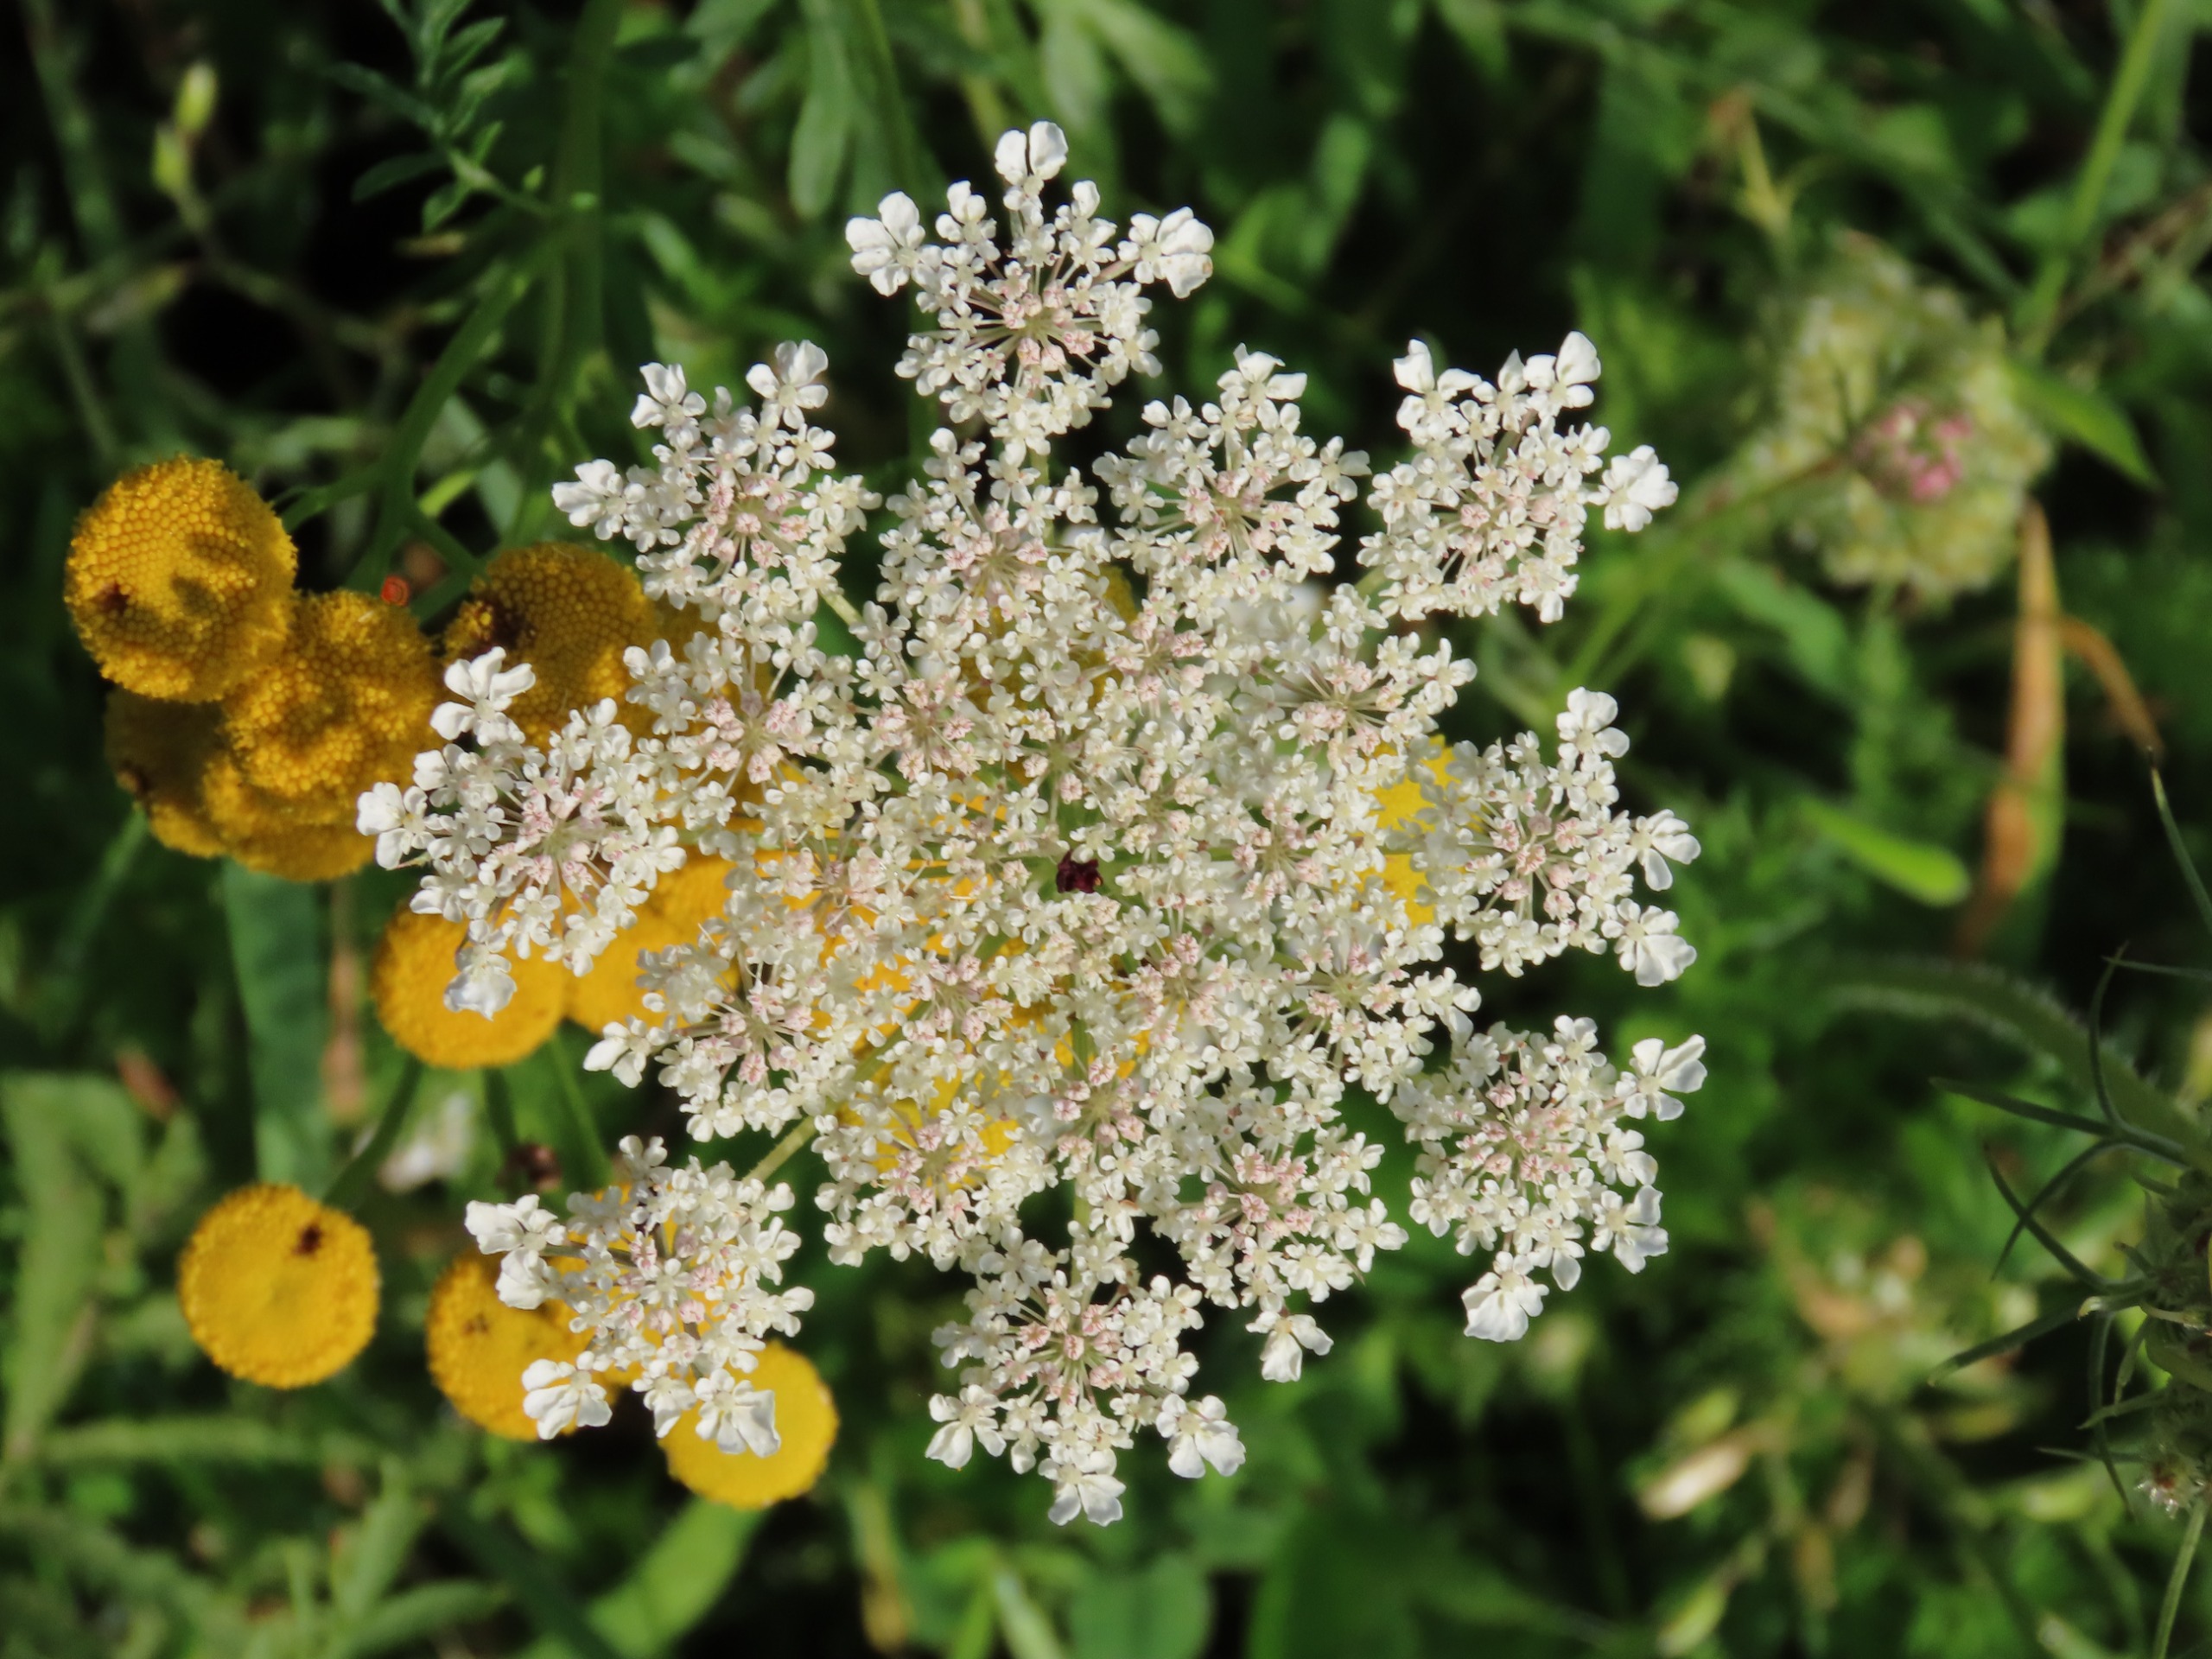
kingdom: Plantae
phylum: Tracheophyta
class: Magnoliopsida
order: Apiales
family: Apiaceae
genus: Daucus
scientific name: Daucus carota
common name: Gulerod
